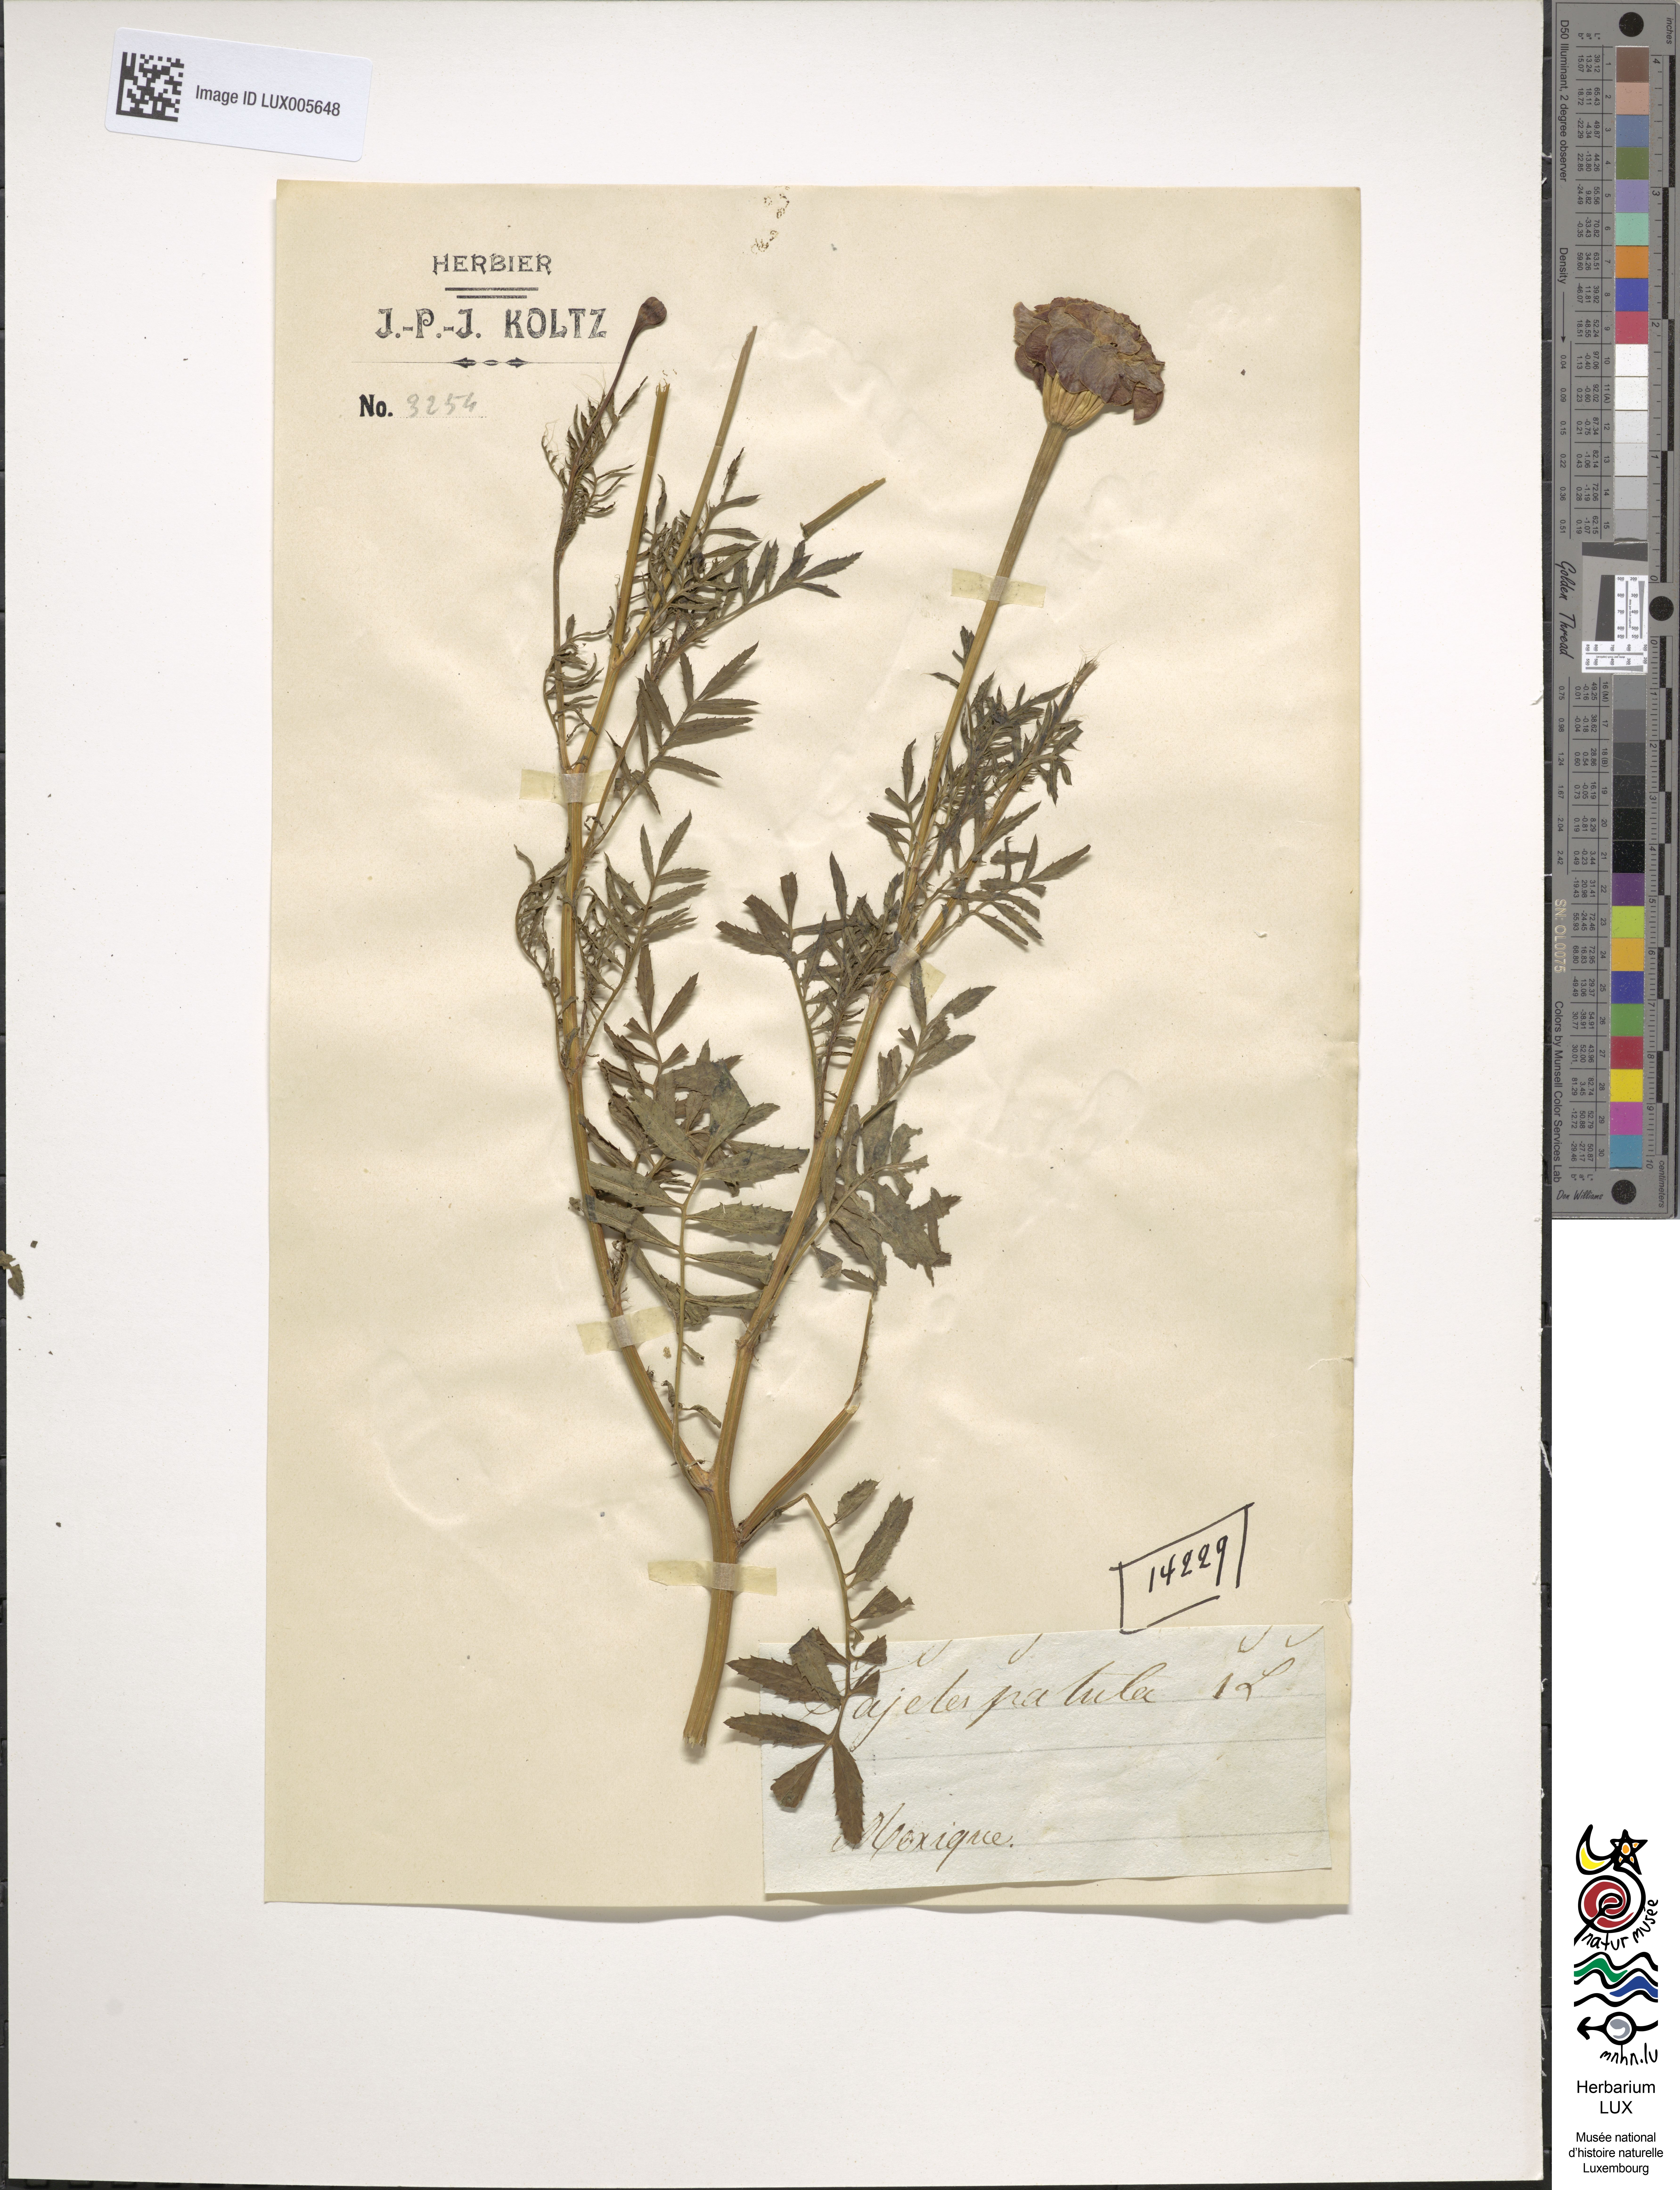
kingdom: Plantae
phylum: Tracheophyta
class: Magnoliopsida
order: Asterales
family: Asteraceae
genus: Tagetes
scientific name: Tagetes erecta
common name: African marigold
